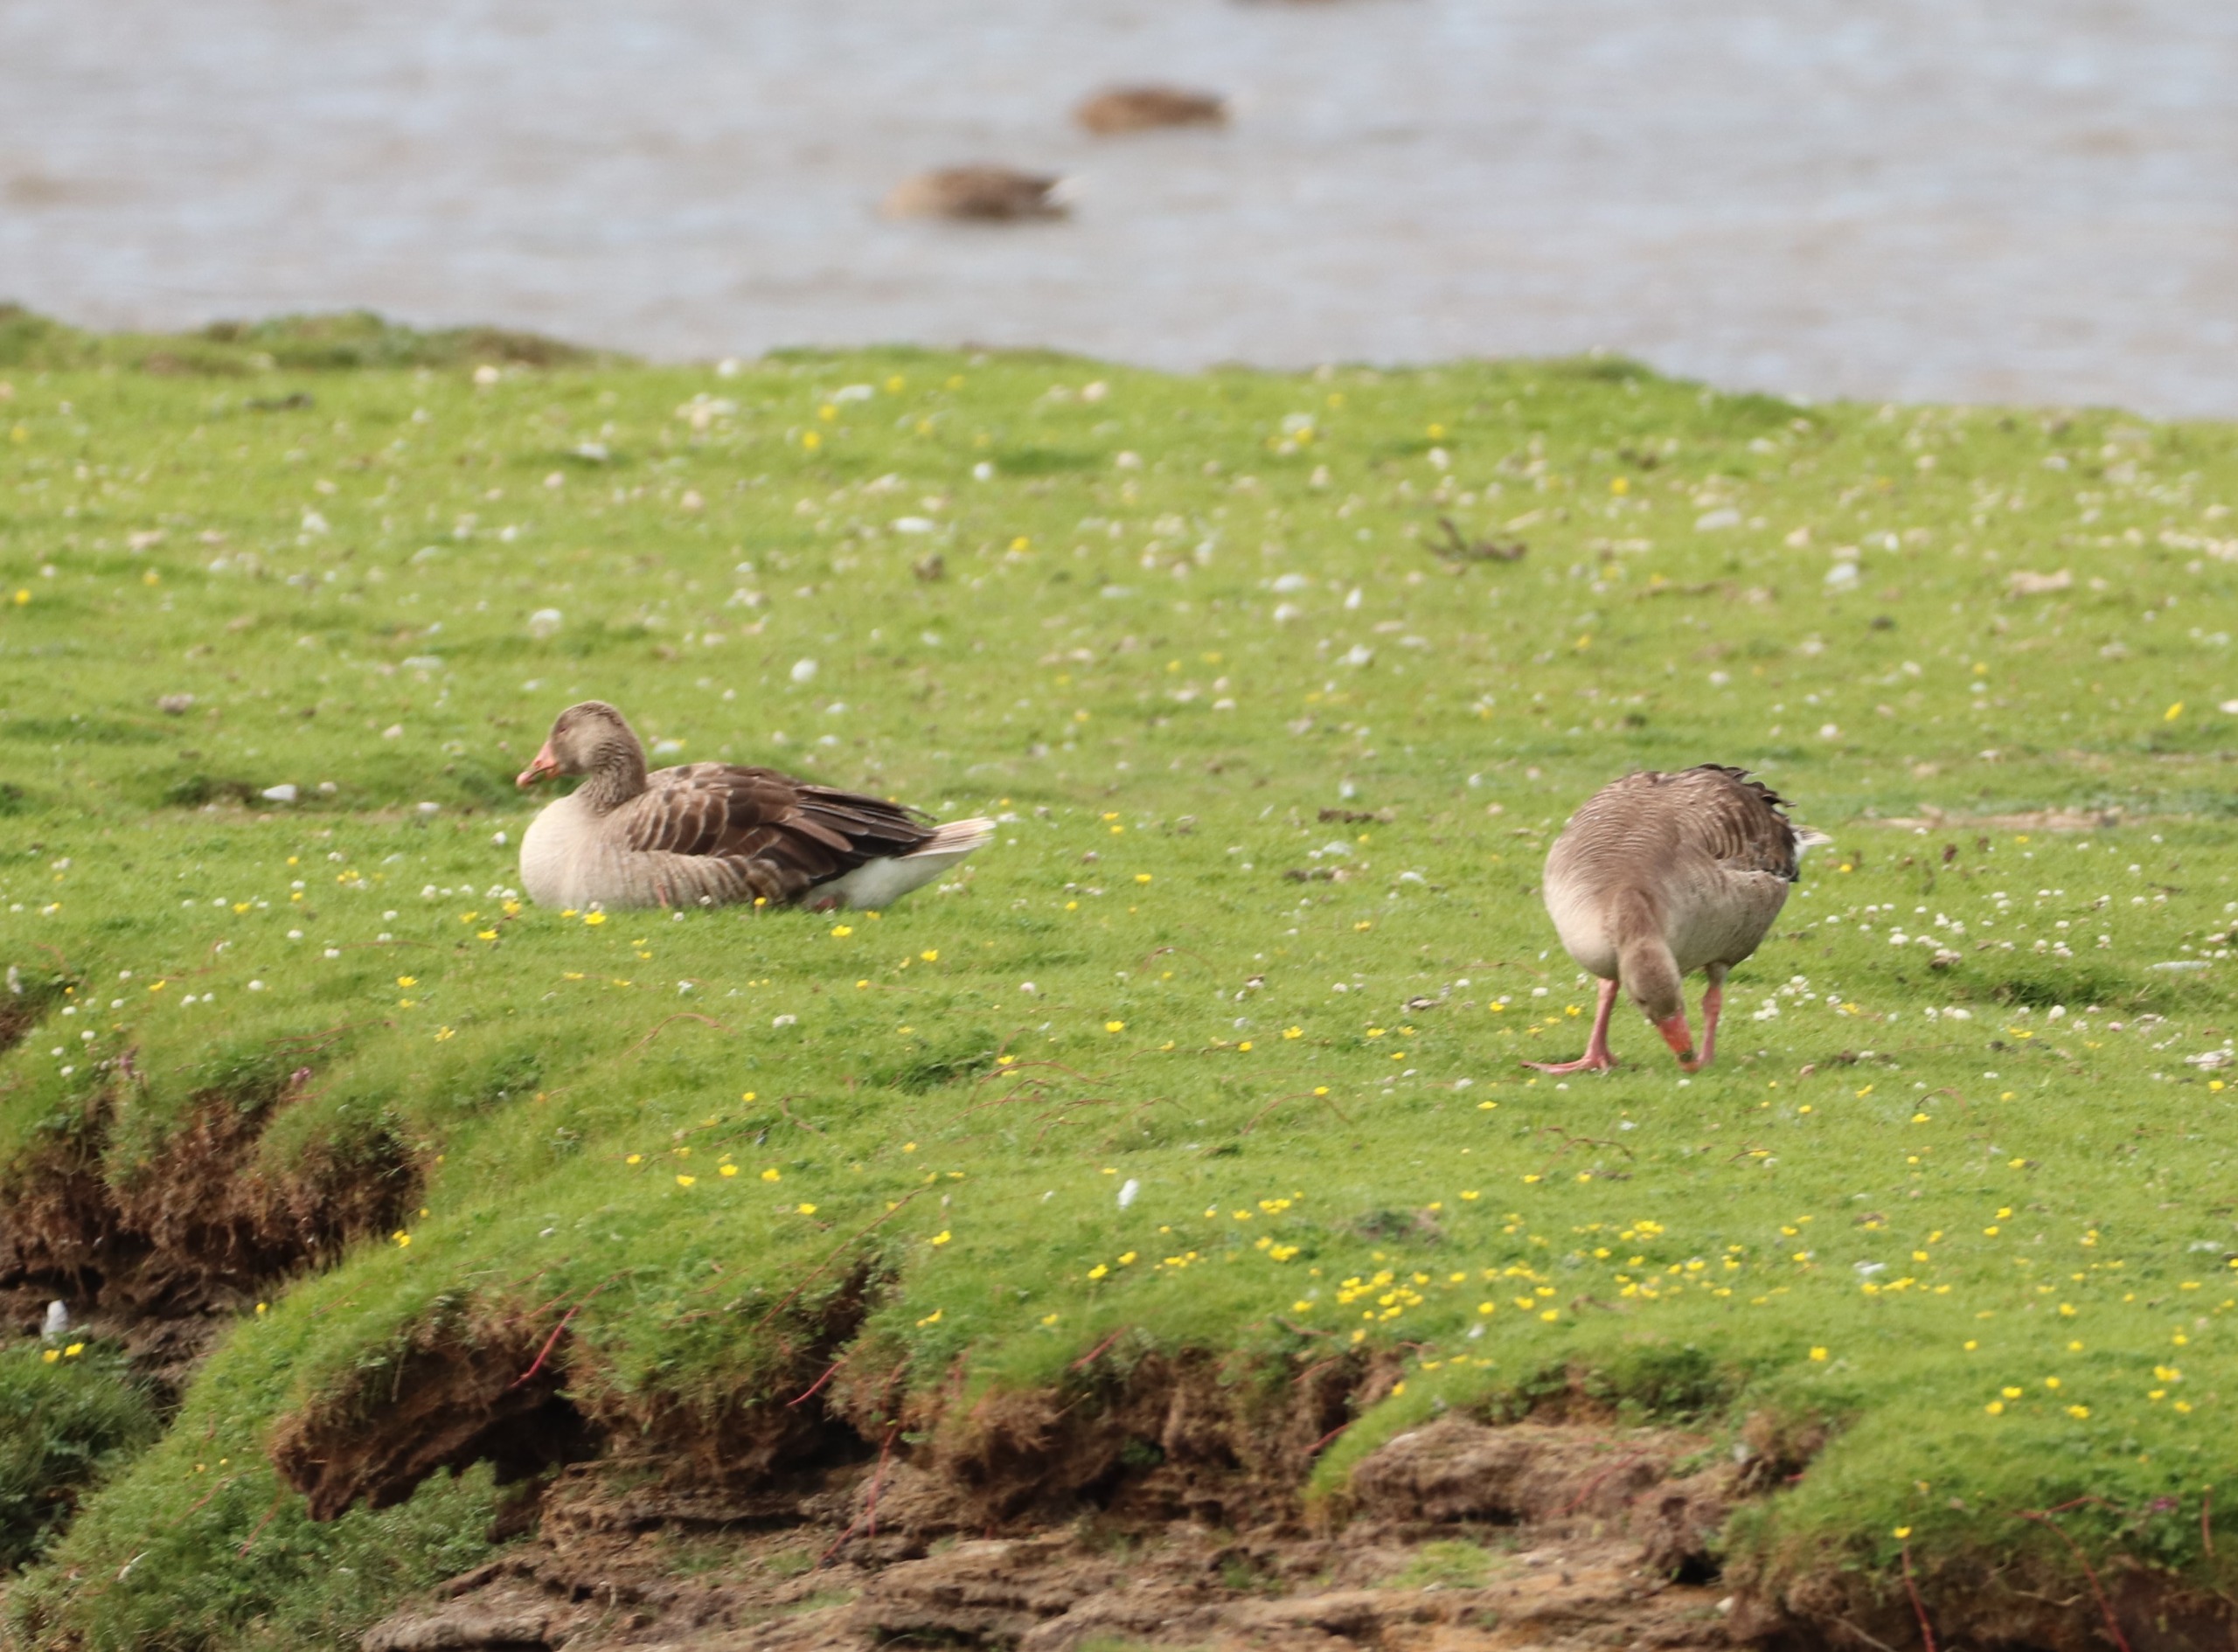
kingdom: Animalia
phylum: Chordata
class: Aves
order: Anseriformes
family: Anatidae
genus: Anser
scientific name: Anser anser
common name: Grågås
